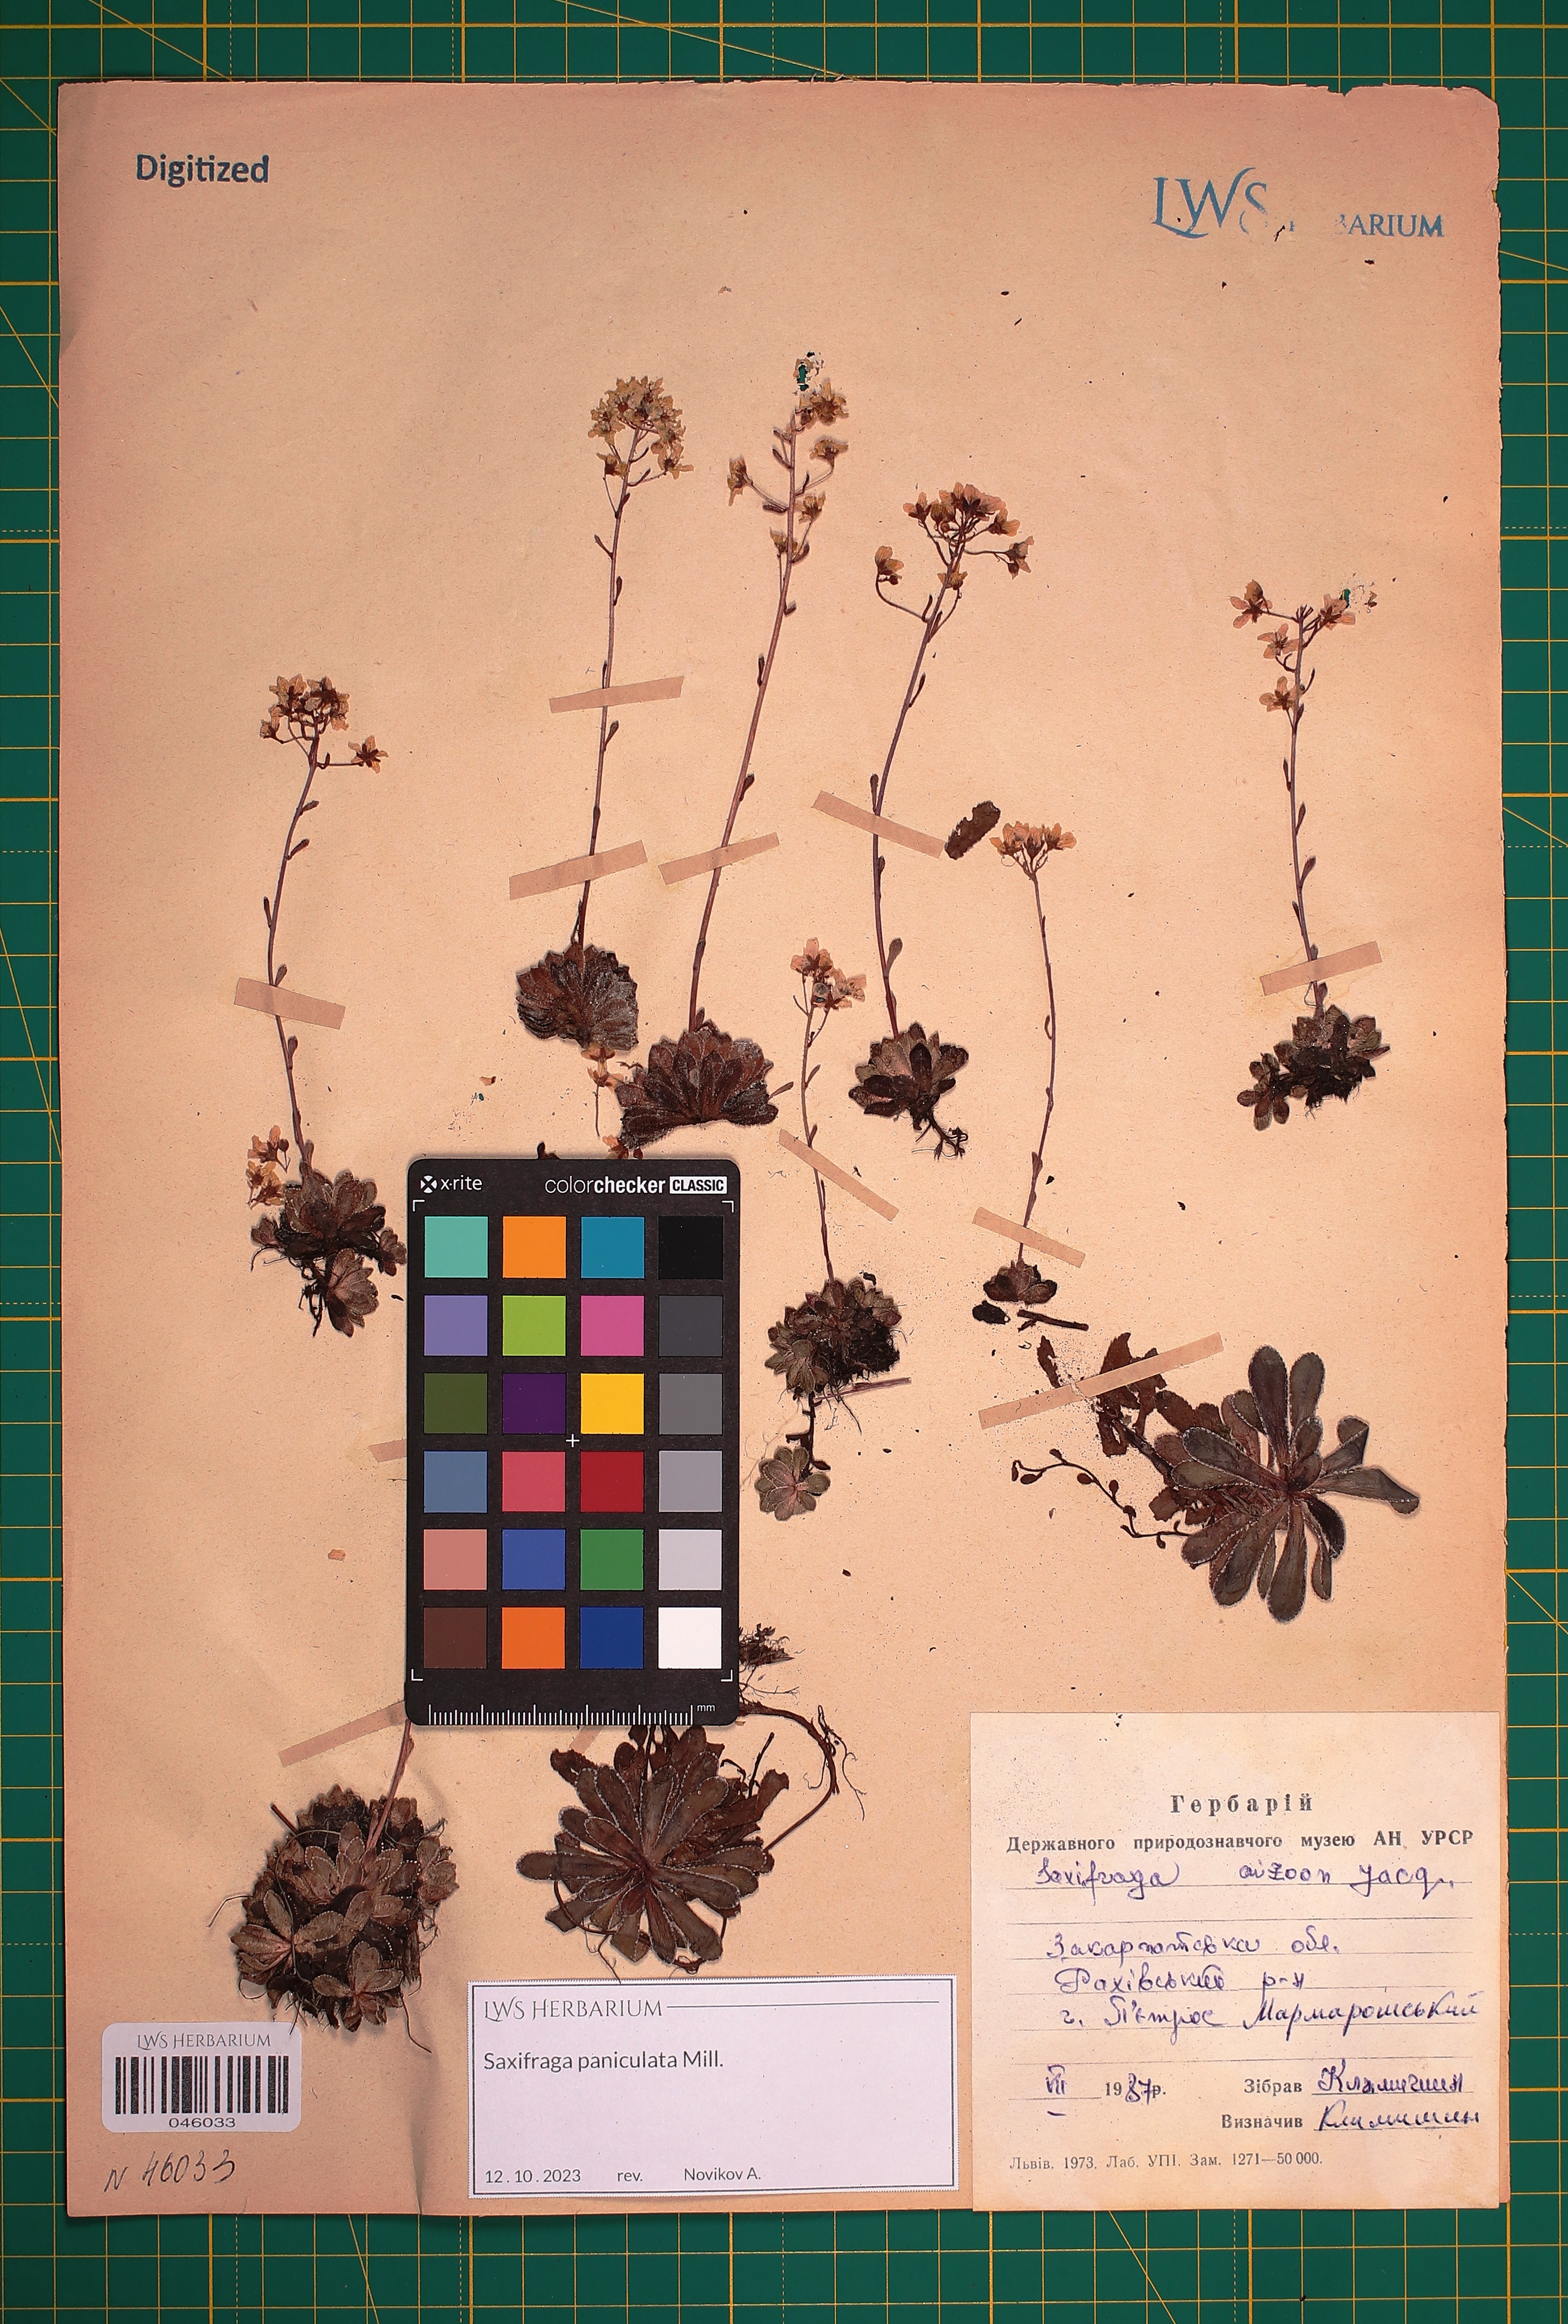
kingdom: Plantae
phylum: Tracheophyta
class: Magnoliopsida
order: Saxifragales
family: Saxifragaceae
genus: Saxifraga
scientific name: Saxifraga paniculata
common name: Livelong saxifrage
